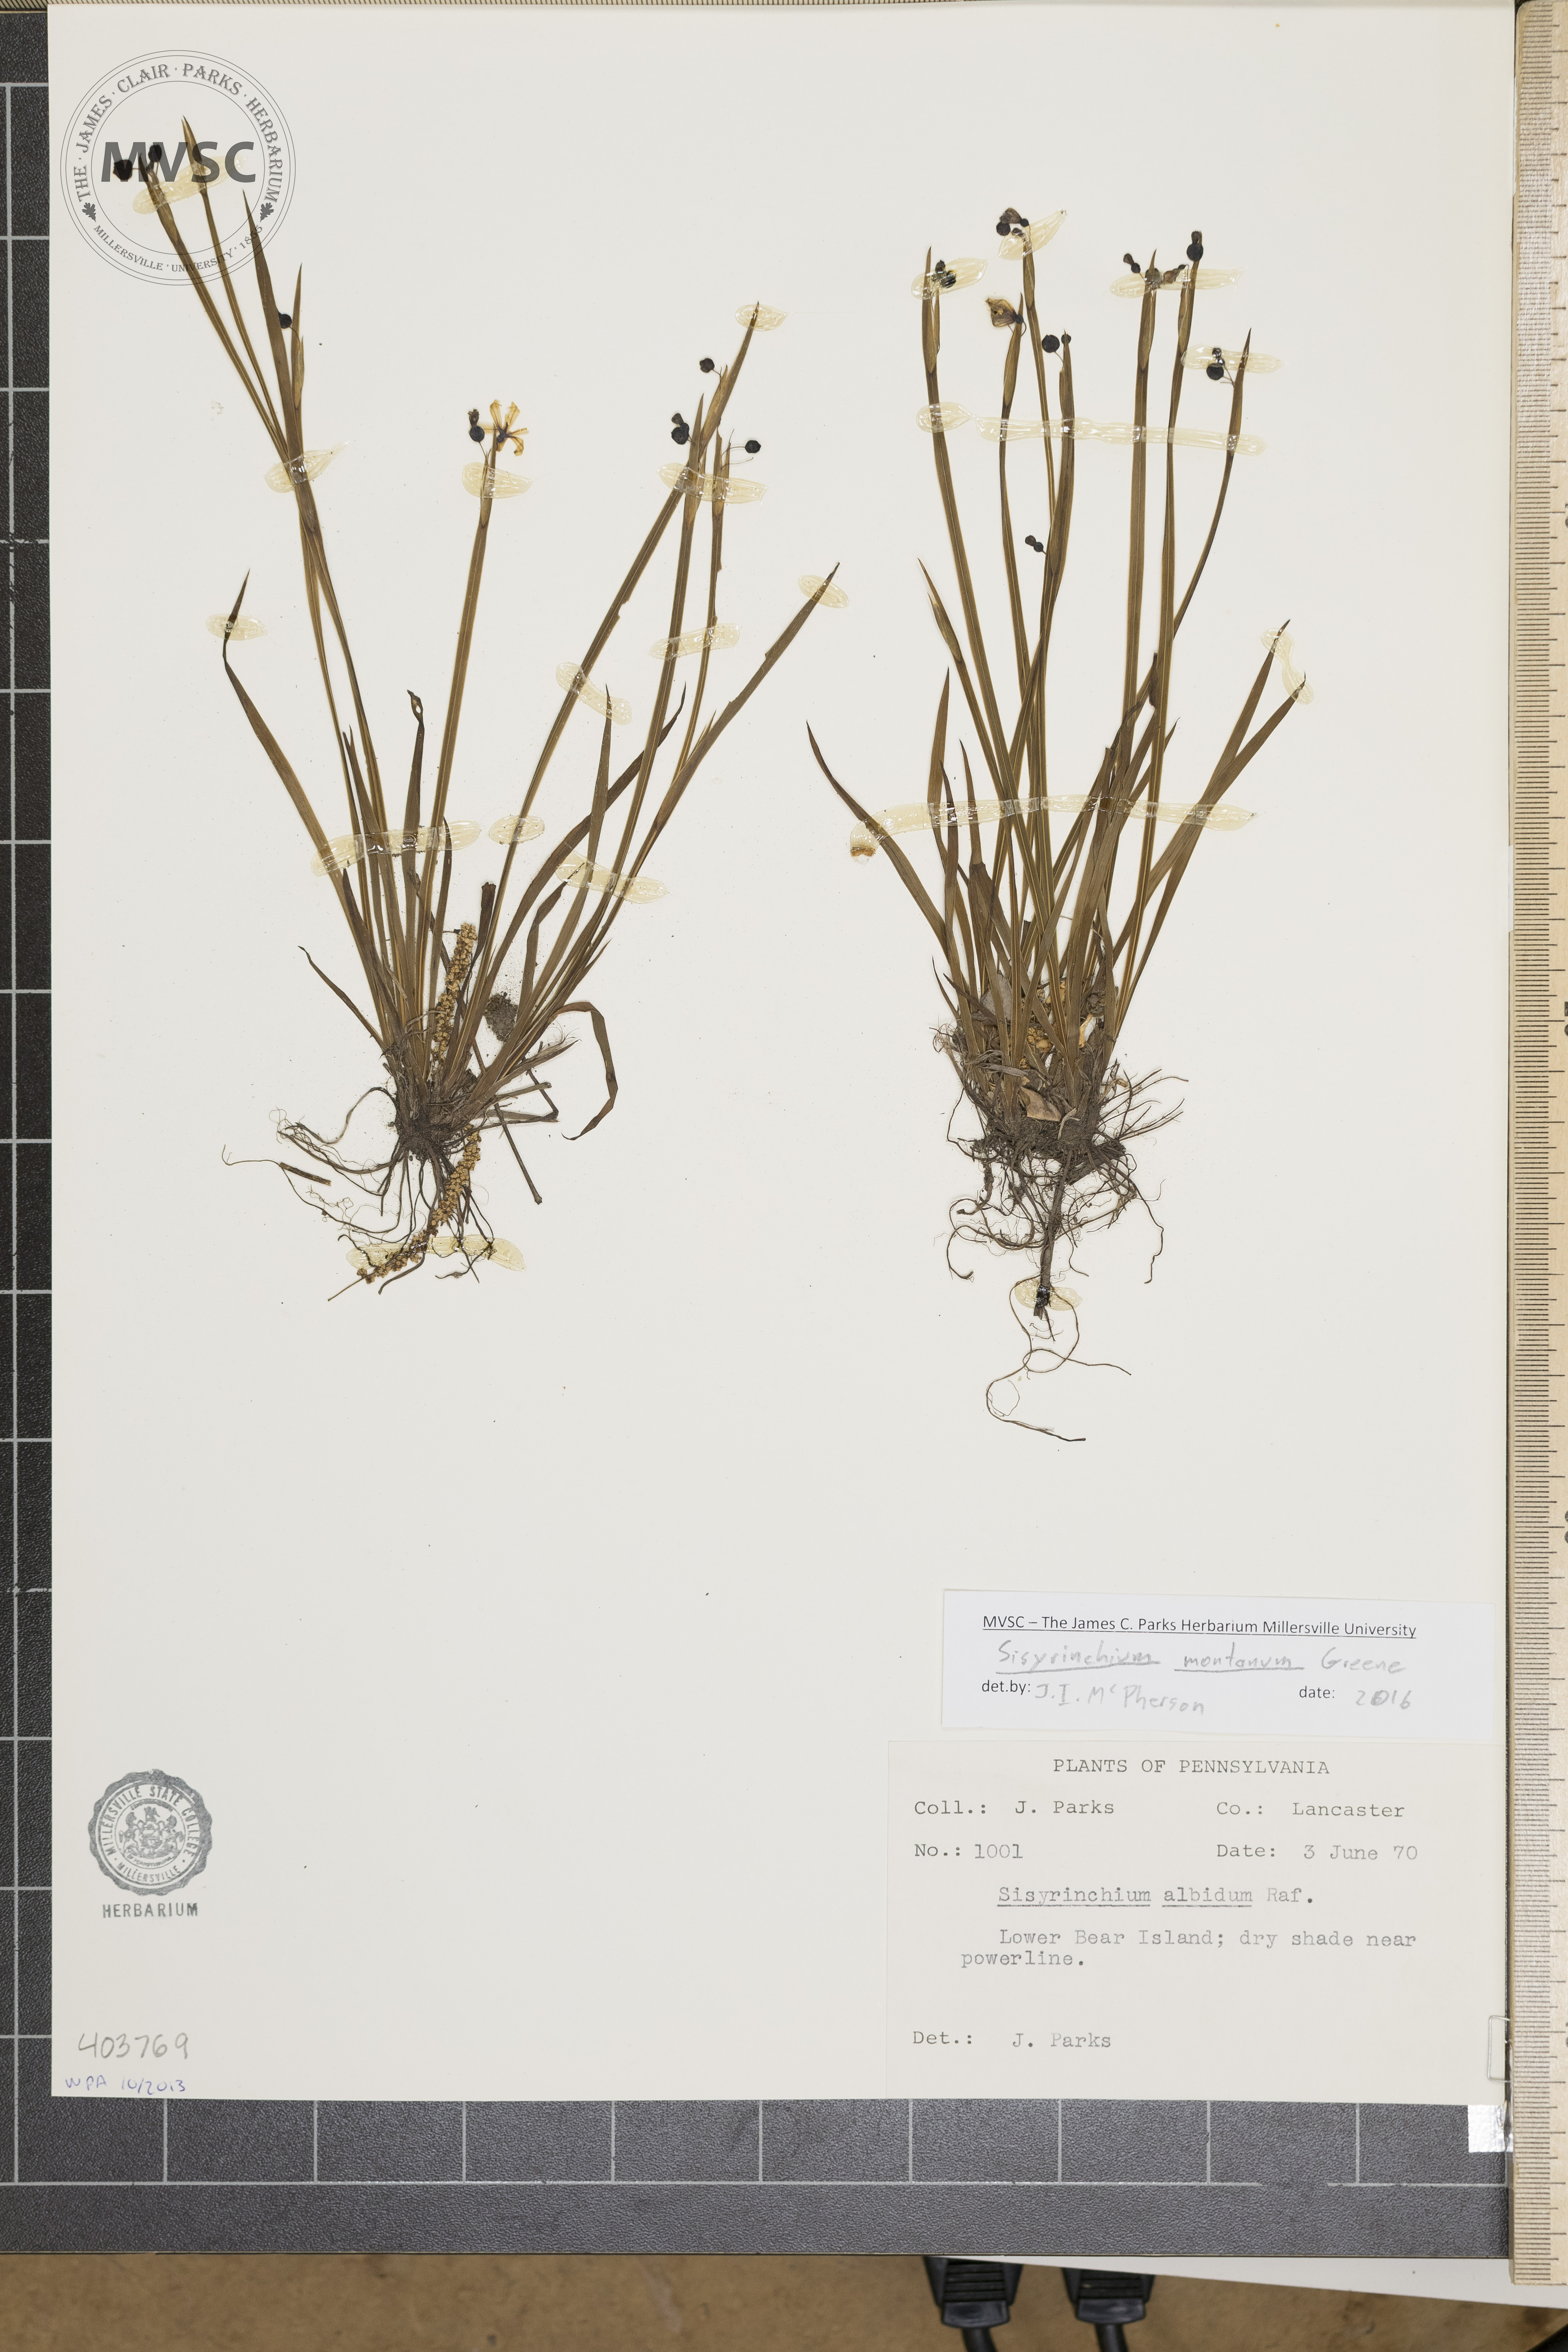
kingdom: Plantae
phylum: Tracheophyta
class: Liliopsida
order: Asparagales
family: Iridaceae
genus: Sisyrinchium
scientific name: Sisyrinchium montanum
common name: American blue-eyed-grass
